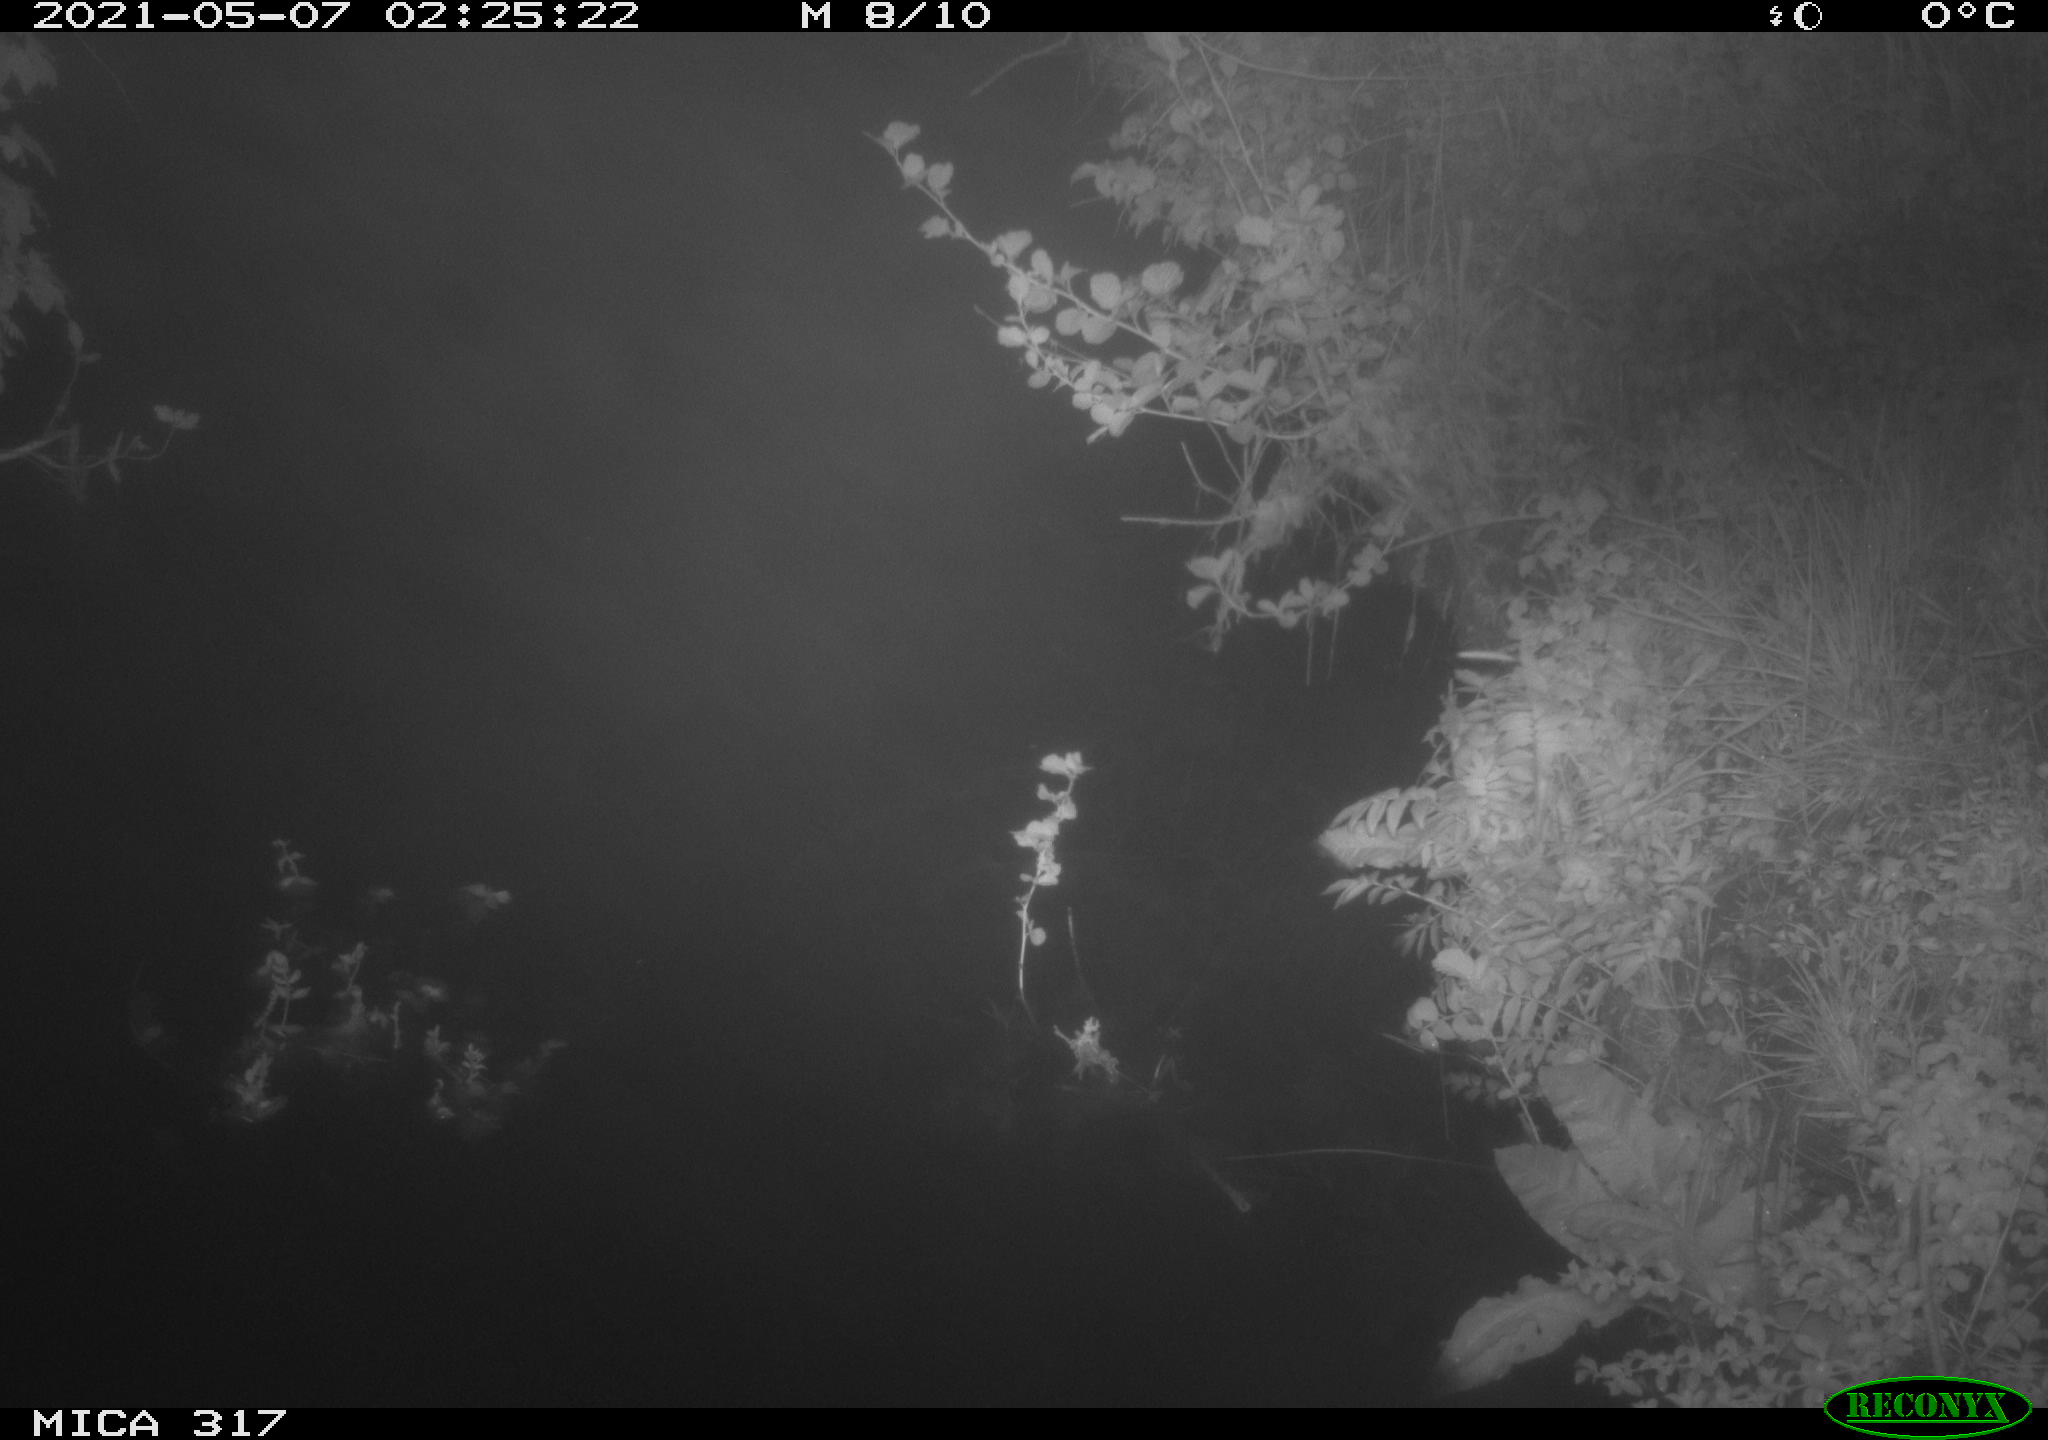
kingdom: Animalia
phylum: Chordata
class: Aves
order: Anseriformes
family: Anatidae
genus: Anas
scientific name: Anas
